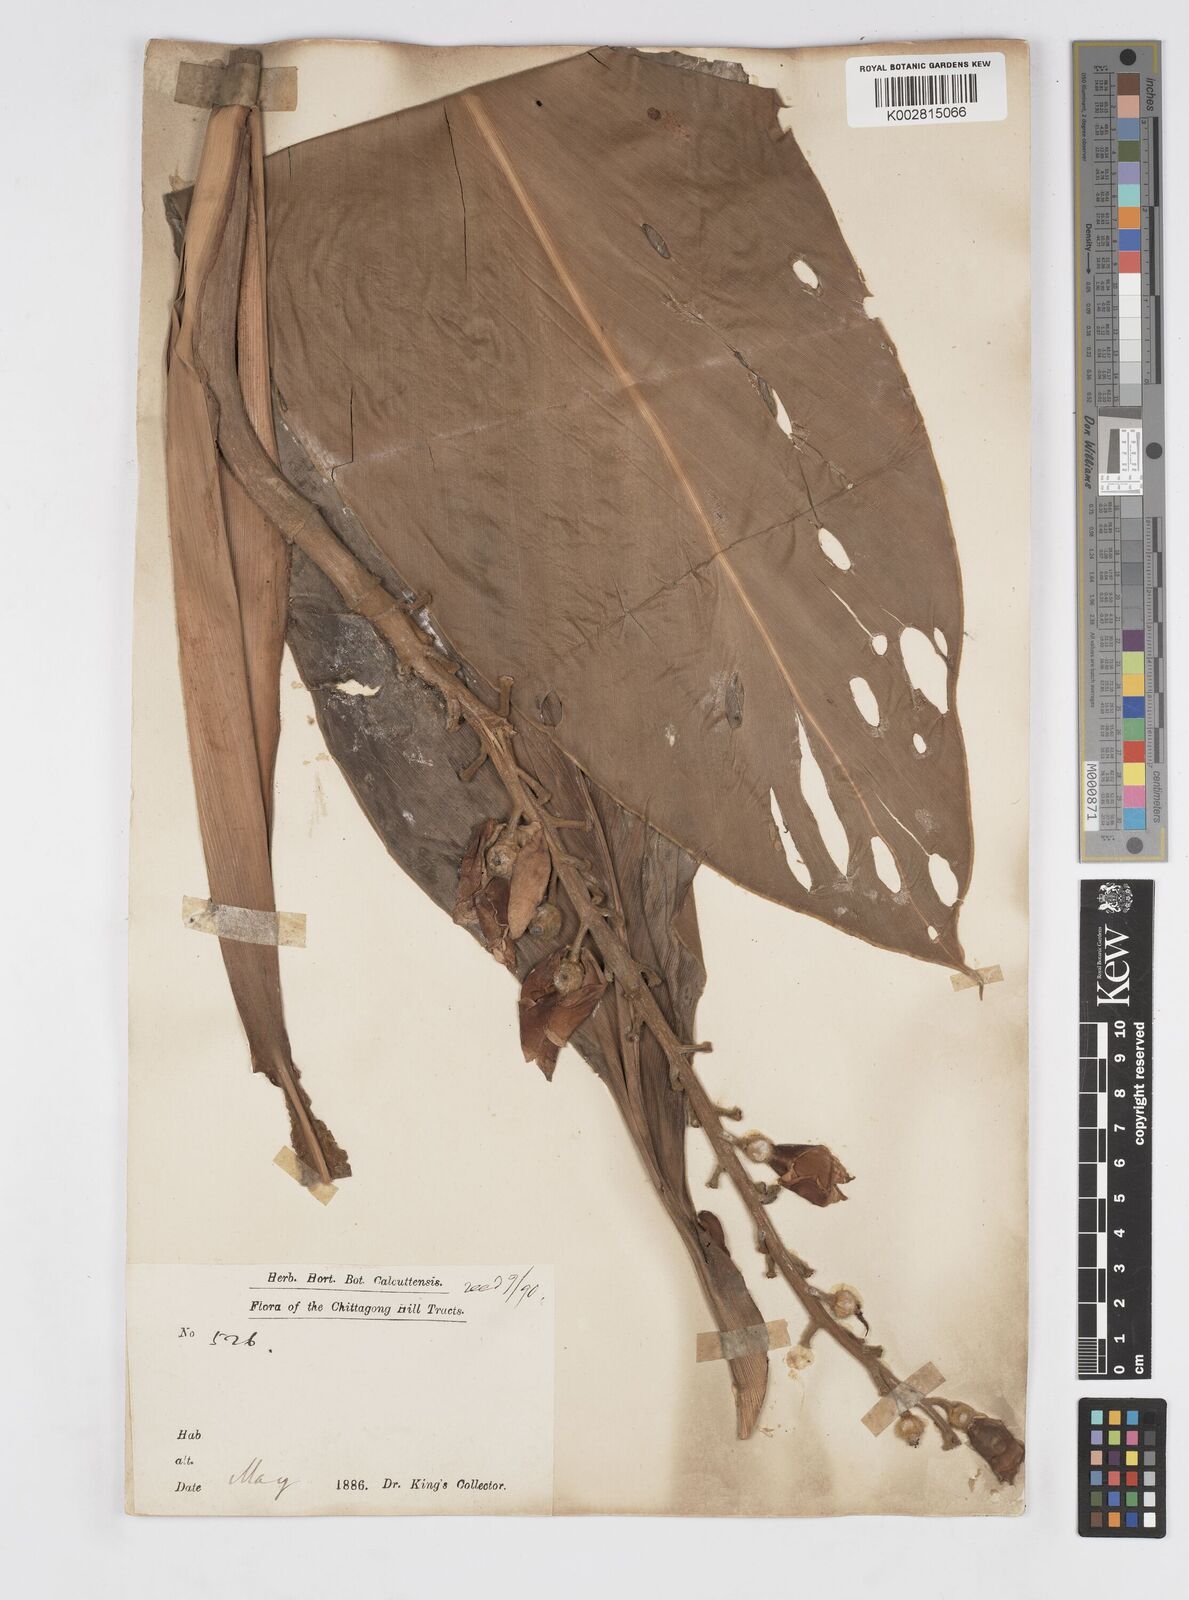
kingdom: Plantae
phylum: Tracheophyta
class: Liliopsida
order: Zingiberales
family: Zingiberaceae
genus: Alpinia
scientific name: Alpinia
